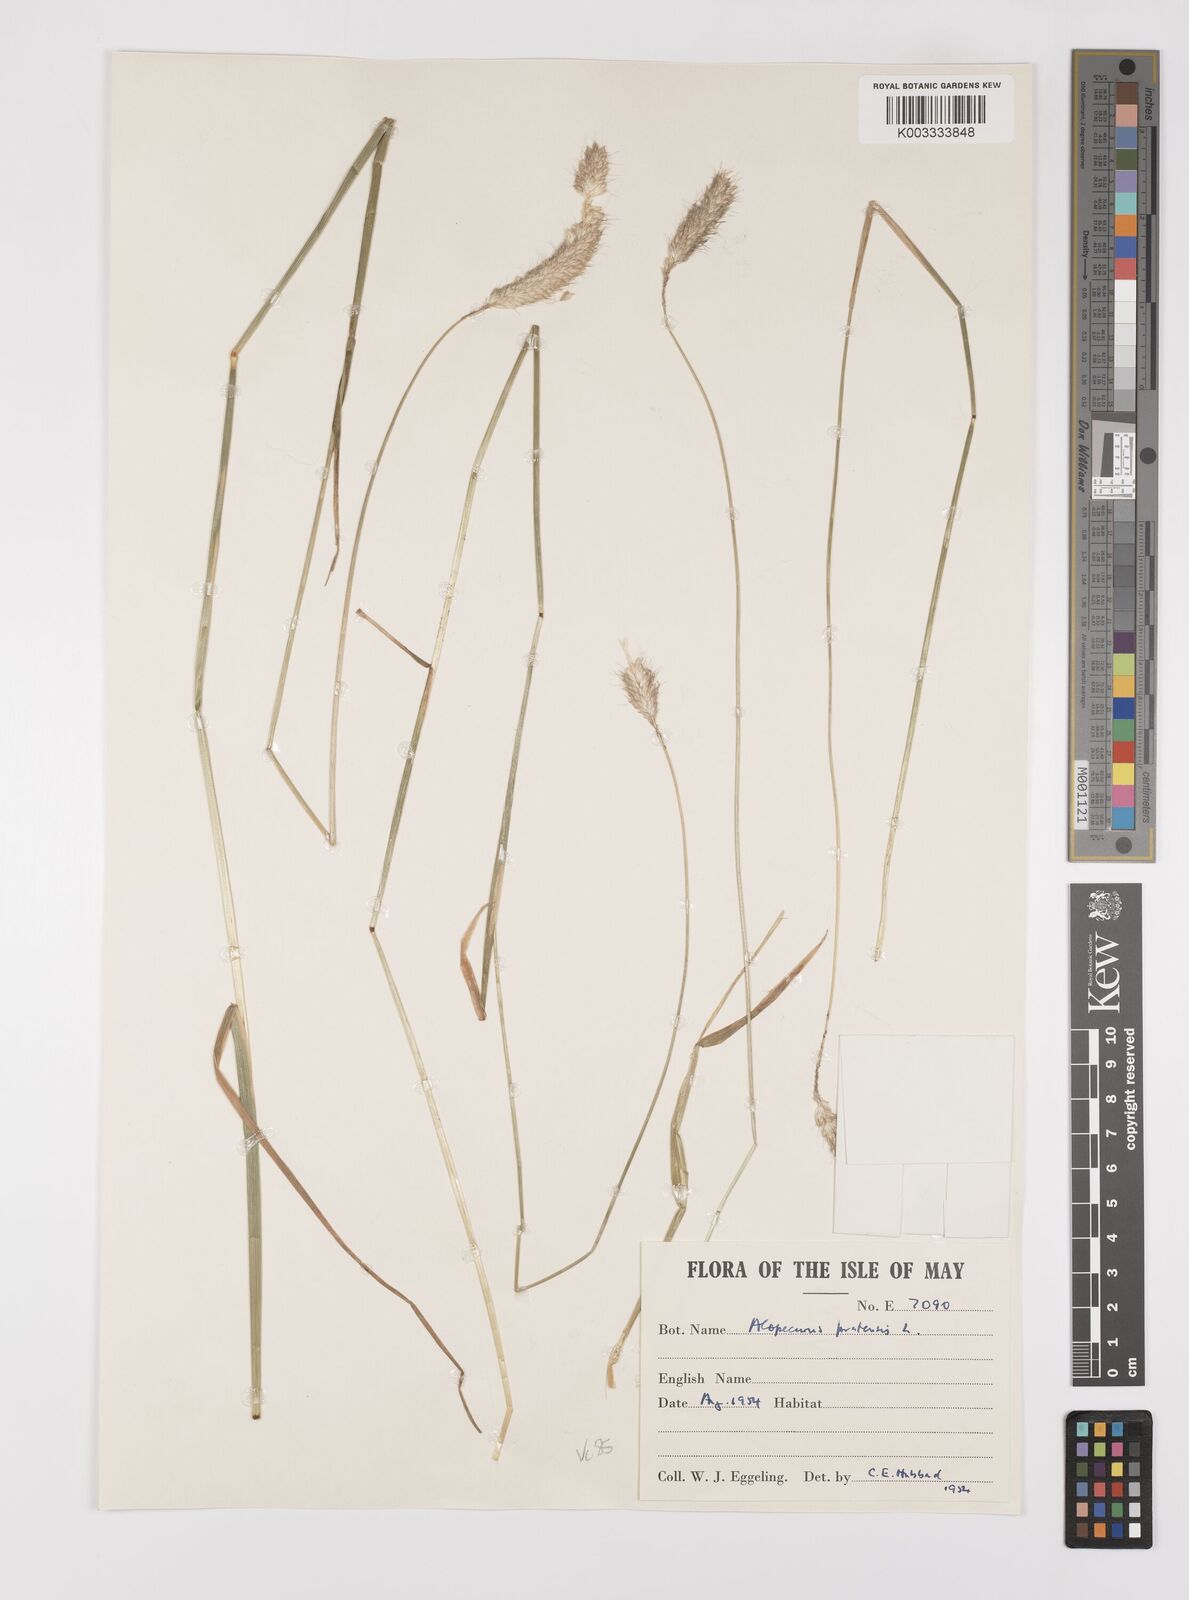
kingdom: Plantae
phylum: Tracheophyta
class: Liliopsida
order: Poales
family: Poaceae
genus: Alopecurus
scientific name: Alopecurus pratensis
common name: Meadow foxtail
